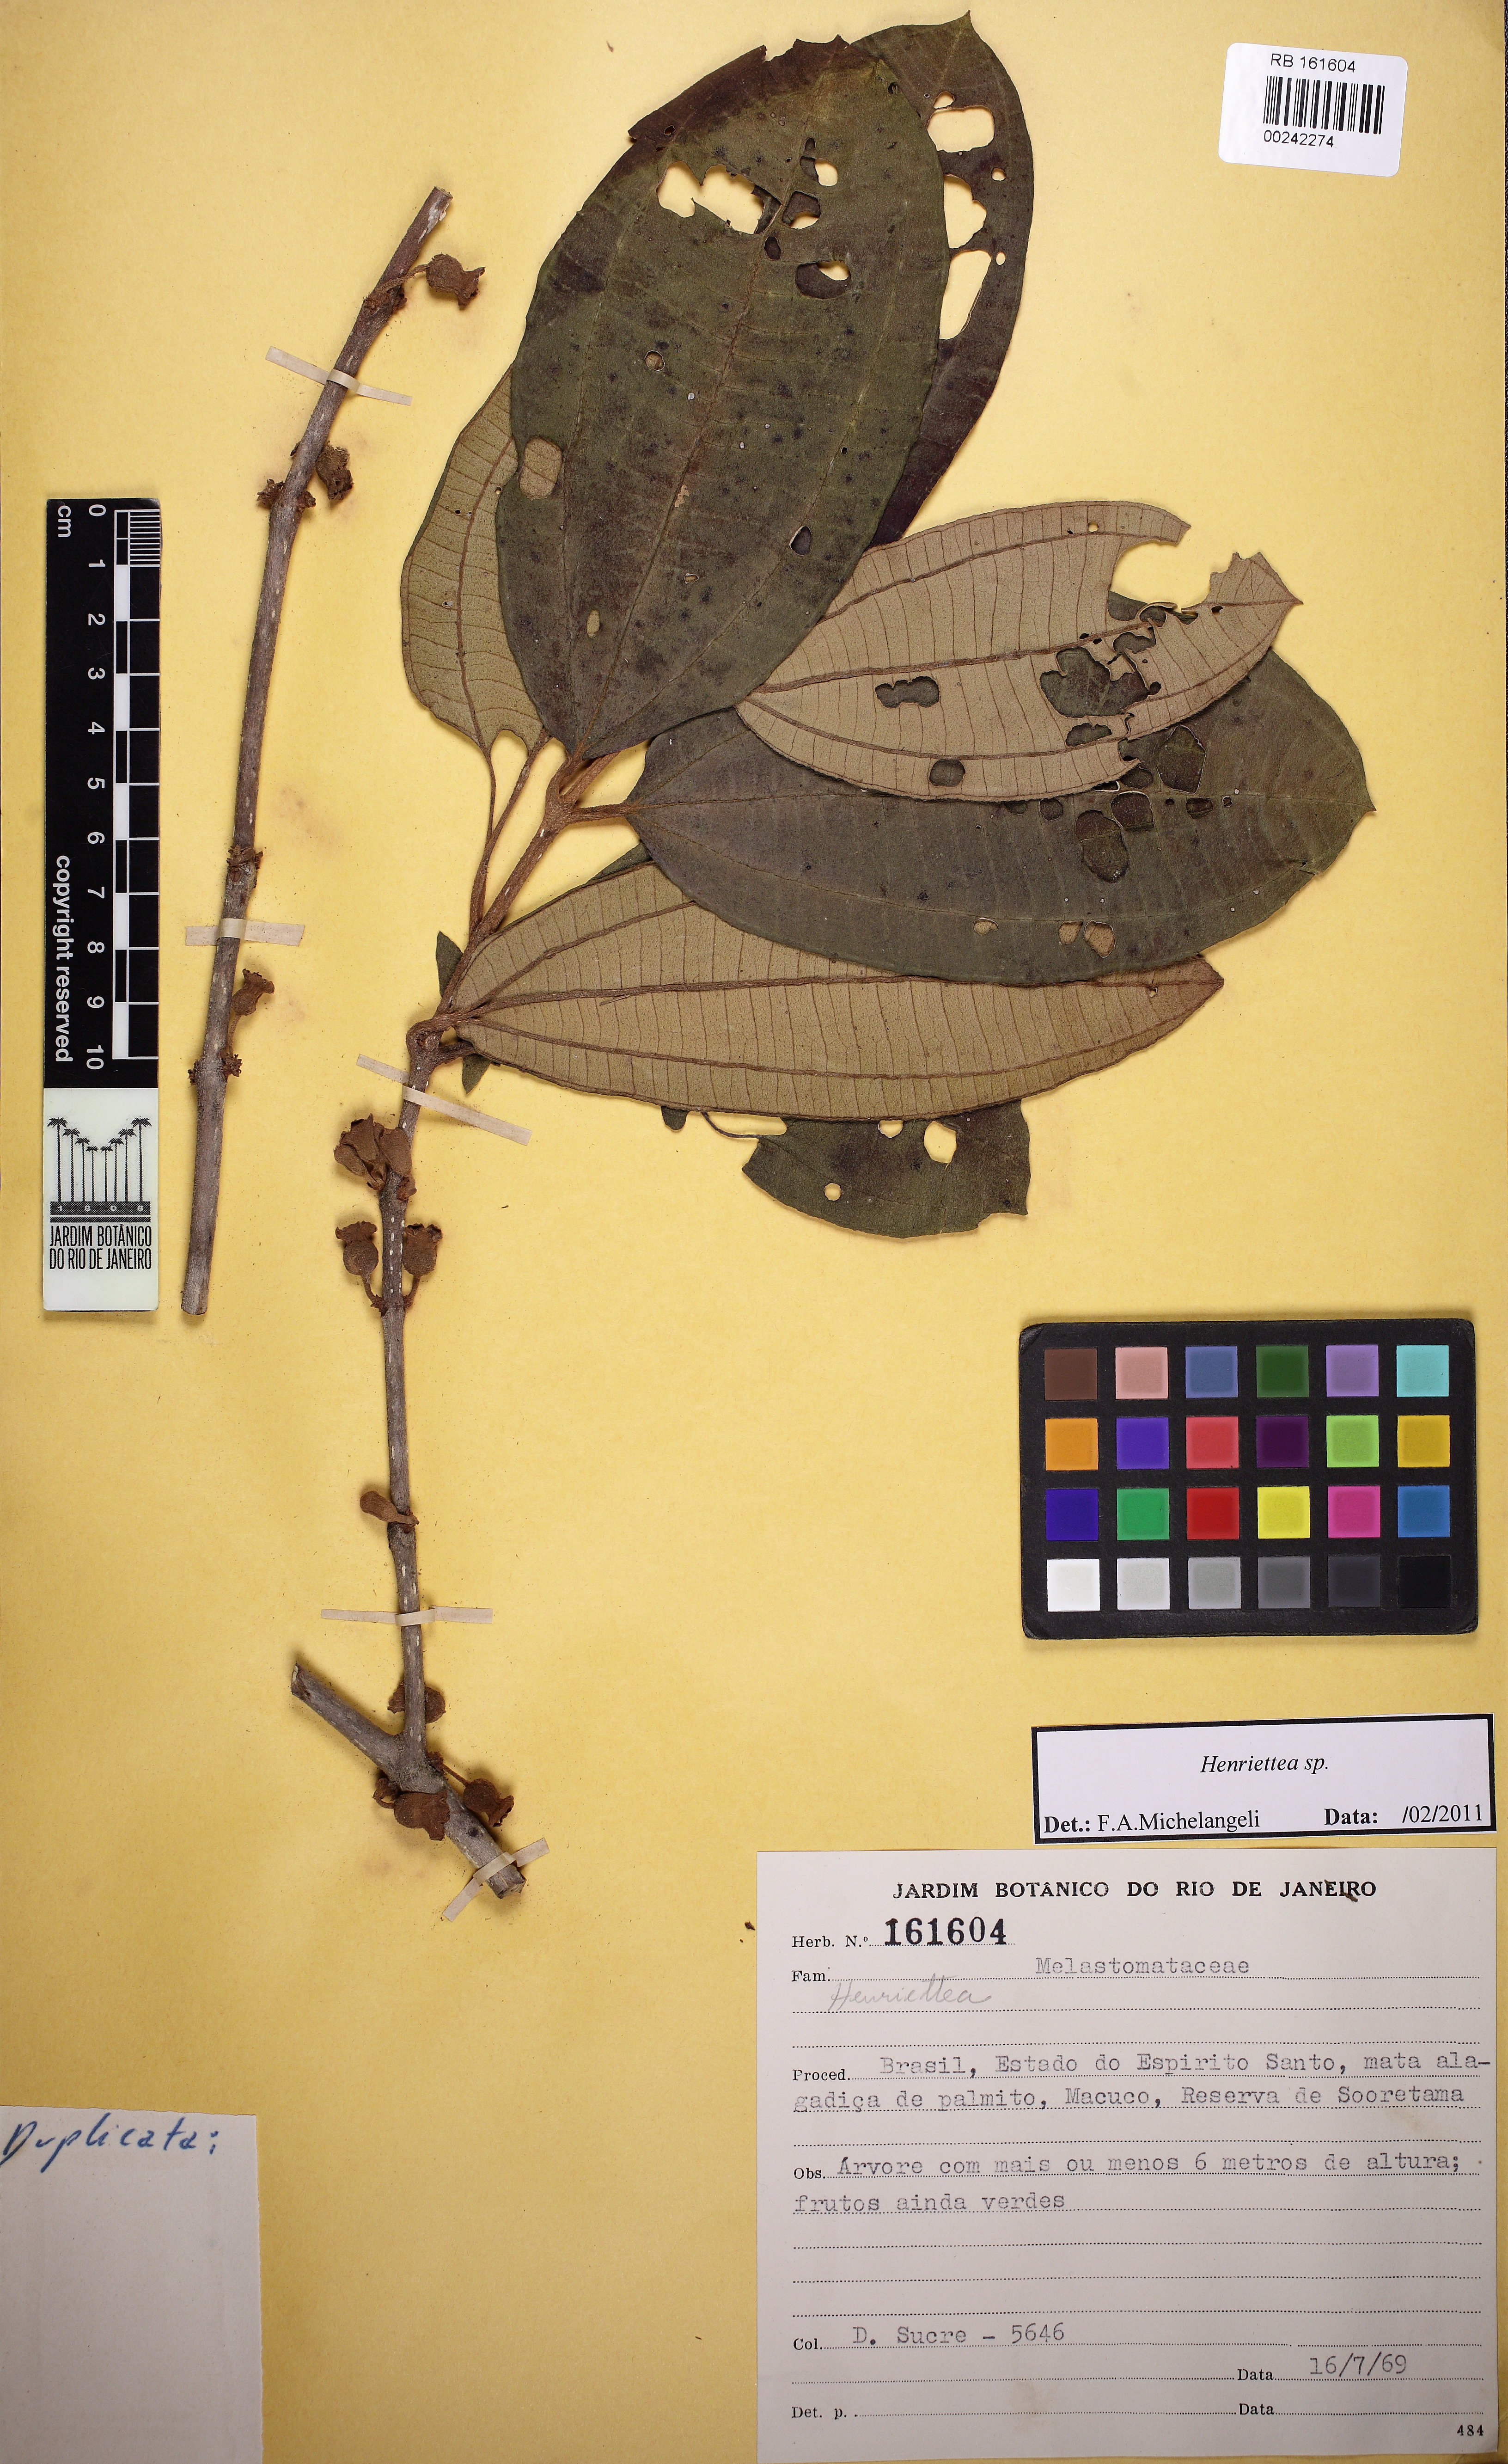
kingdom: Plantae
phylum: Tracheophyta
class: Magnoliopsida
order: Myrtales
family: Melastomataceae
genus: Henriettea
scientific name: Henriettea
